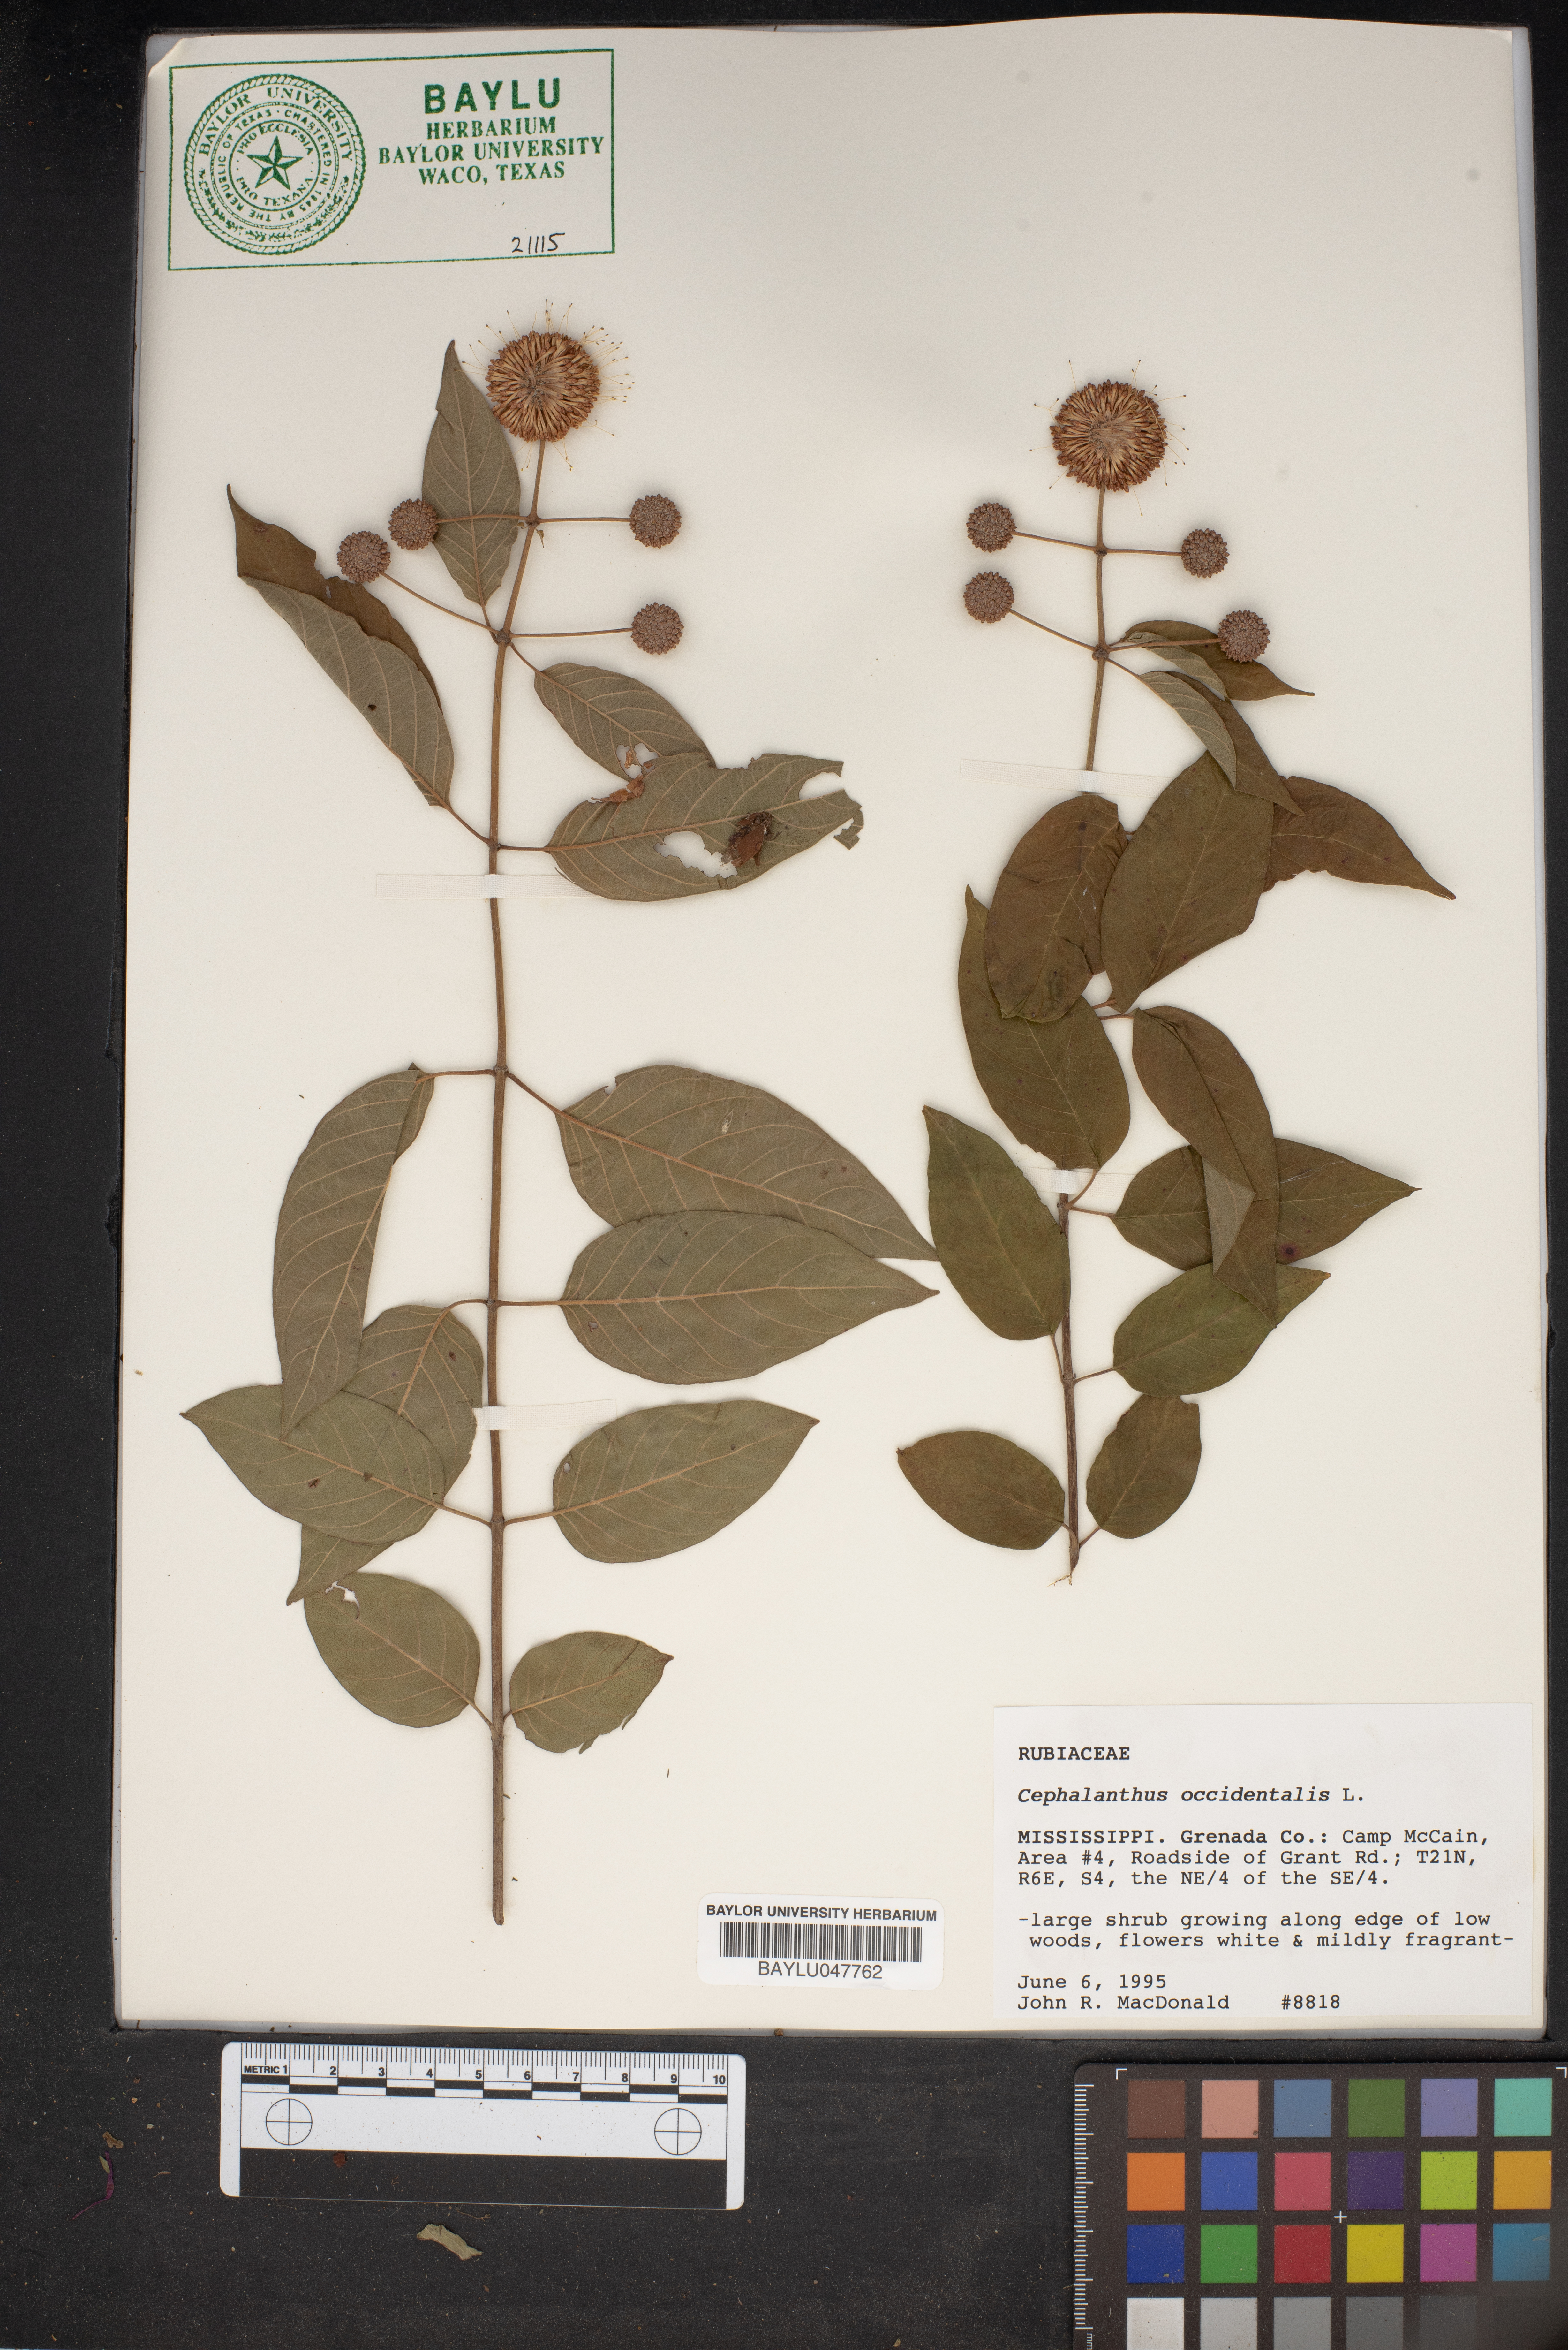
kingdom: Plantae
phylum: Tracheophyta
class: Magnoliopsida
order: Gentianales
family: Rubiaceae
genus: Cephalanthus
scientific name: Cephalanthus occidentalis
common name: Button-willow
